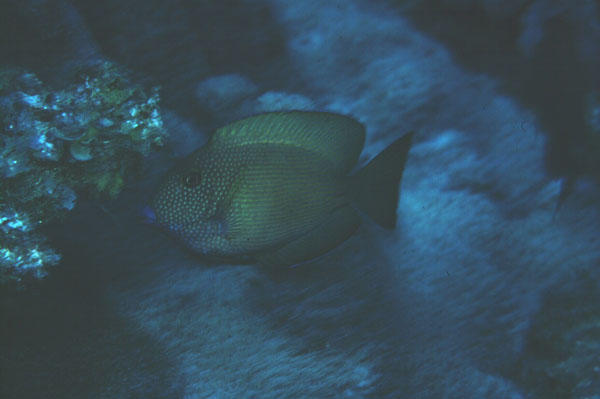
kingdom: Animalia
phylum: Chordata
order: Perciformes
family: Acanthuridae
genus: Ctenochaetus
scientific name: Ctenochaetus truncatus
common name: Indian gold-ring bristle-tooth
